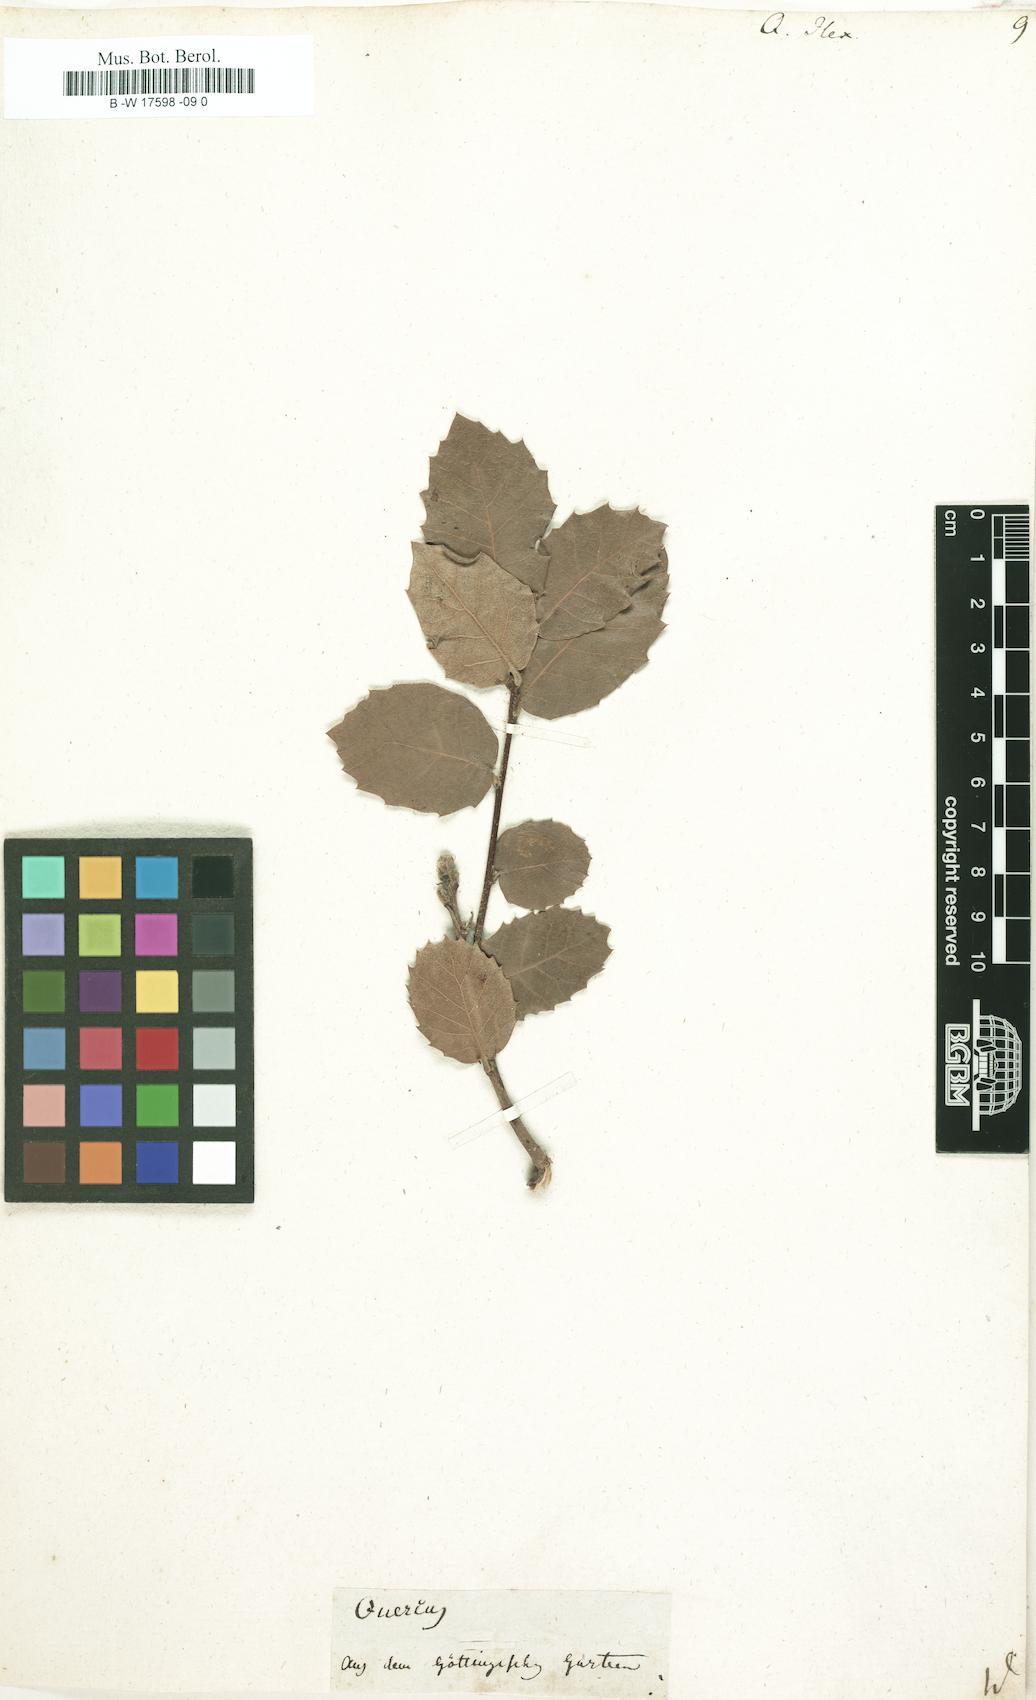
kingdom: Plantae
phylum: Tracheophyta
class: Magnoliopsida
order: Fagales
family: Fagaceae
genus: Quercus
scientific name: Quercus ilex
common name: Evergreen oak
